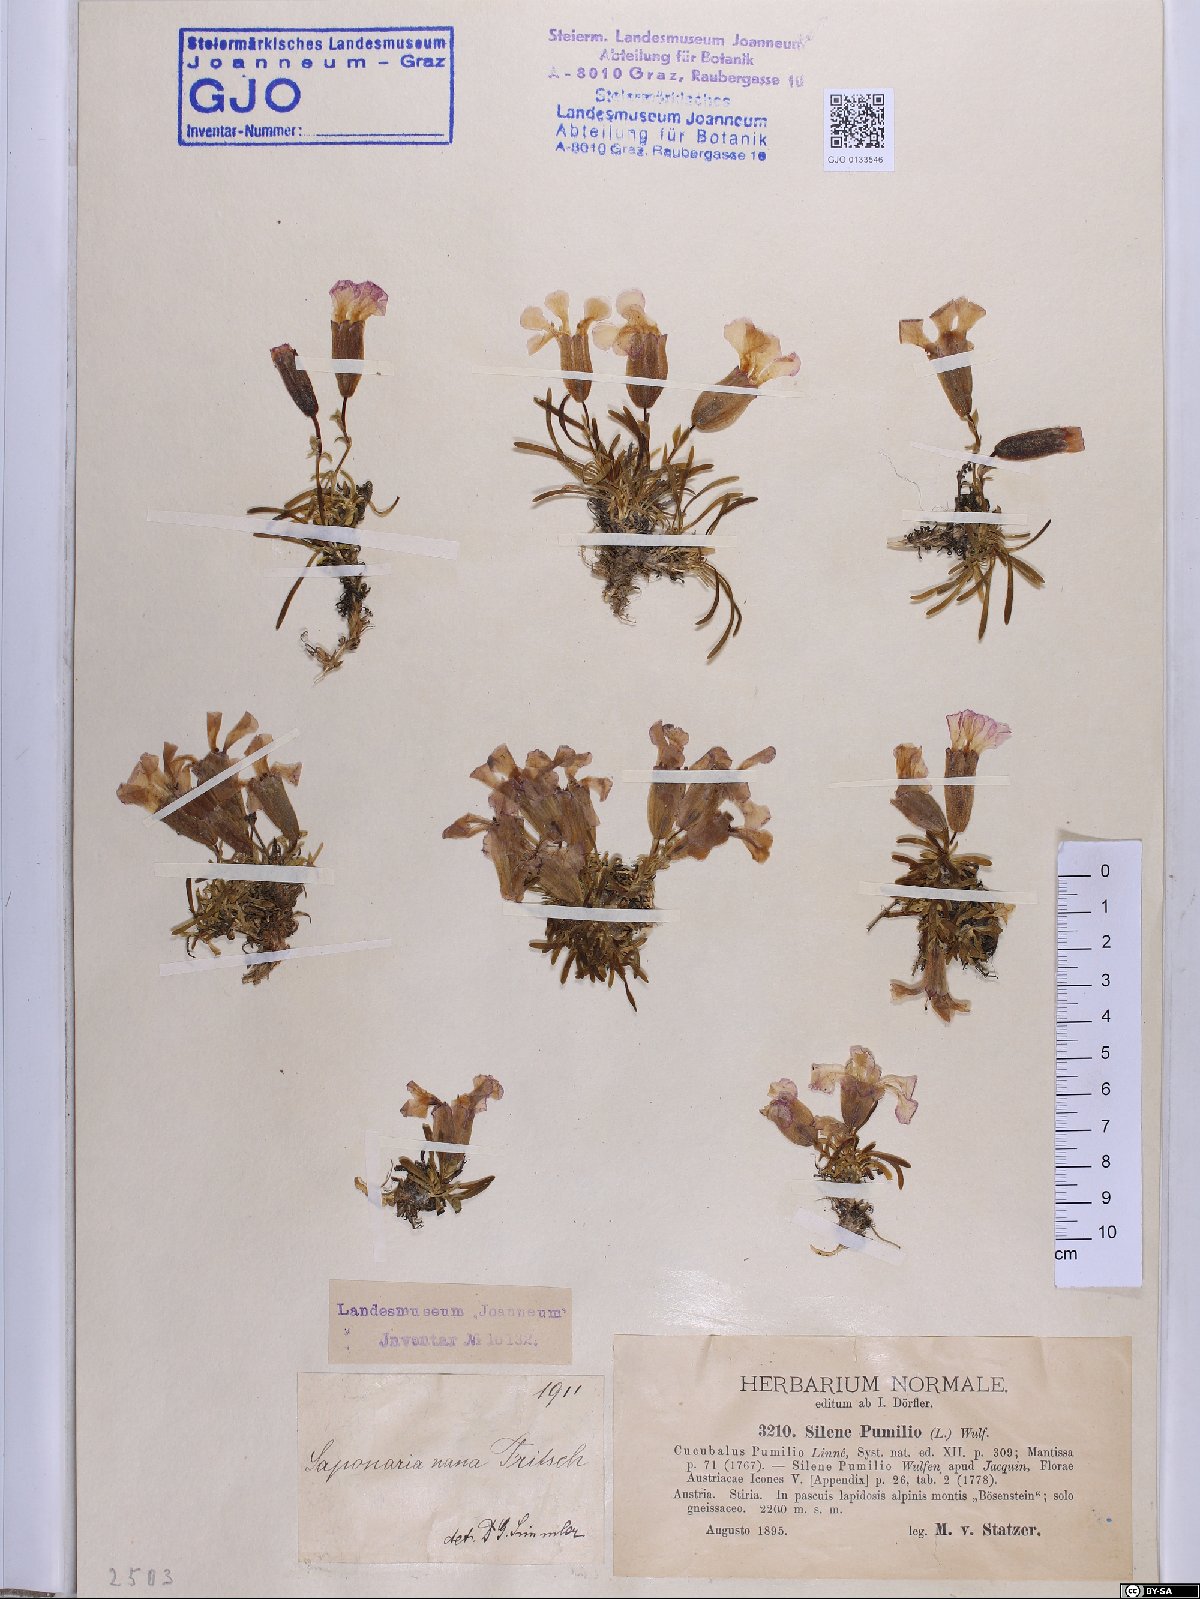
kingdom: Plantae
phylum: Tracheophyta
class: Magnoliopsida
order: Caryophyllales
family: Caryophyllaceae
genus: Saponaria
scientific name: Saponaria pumila
